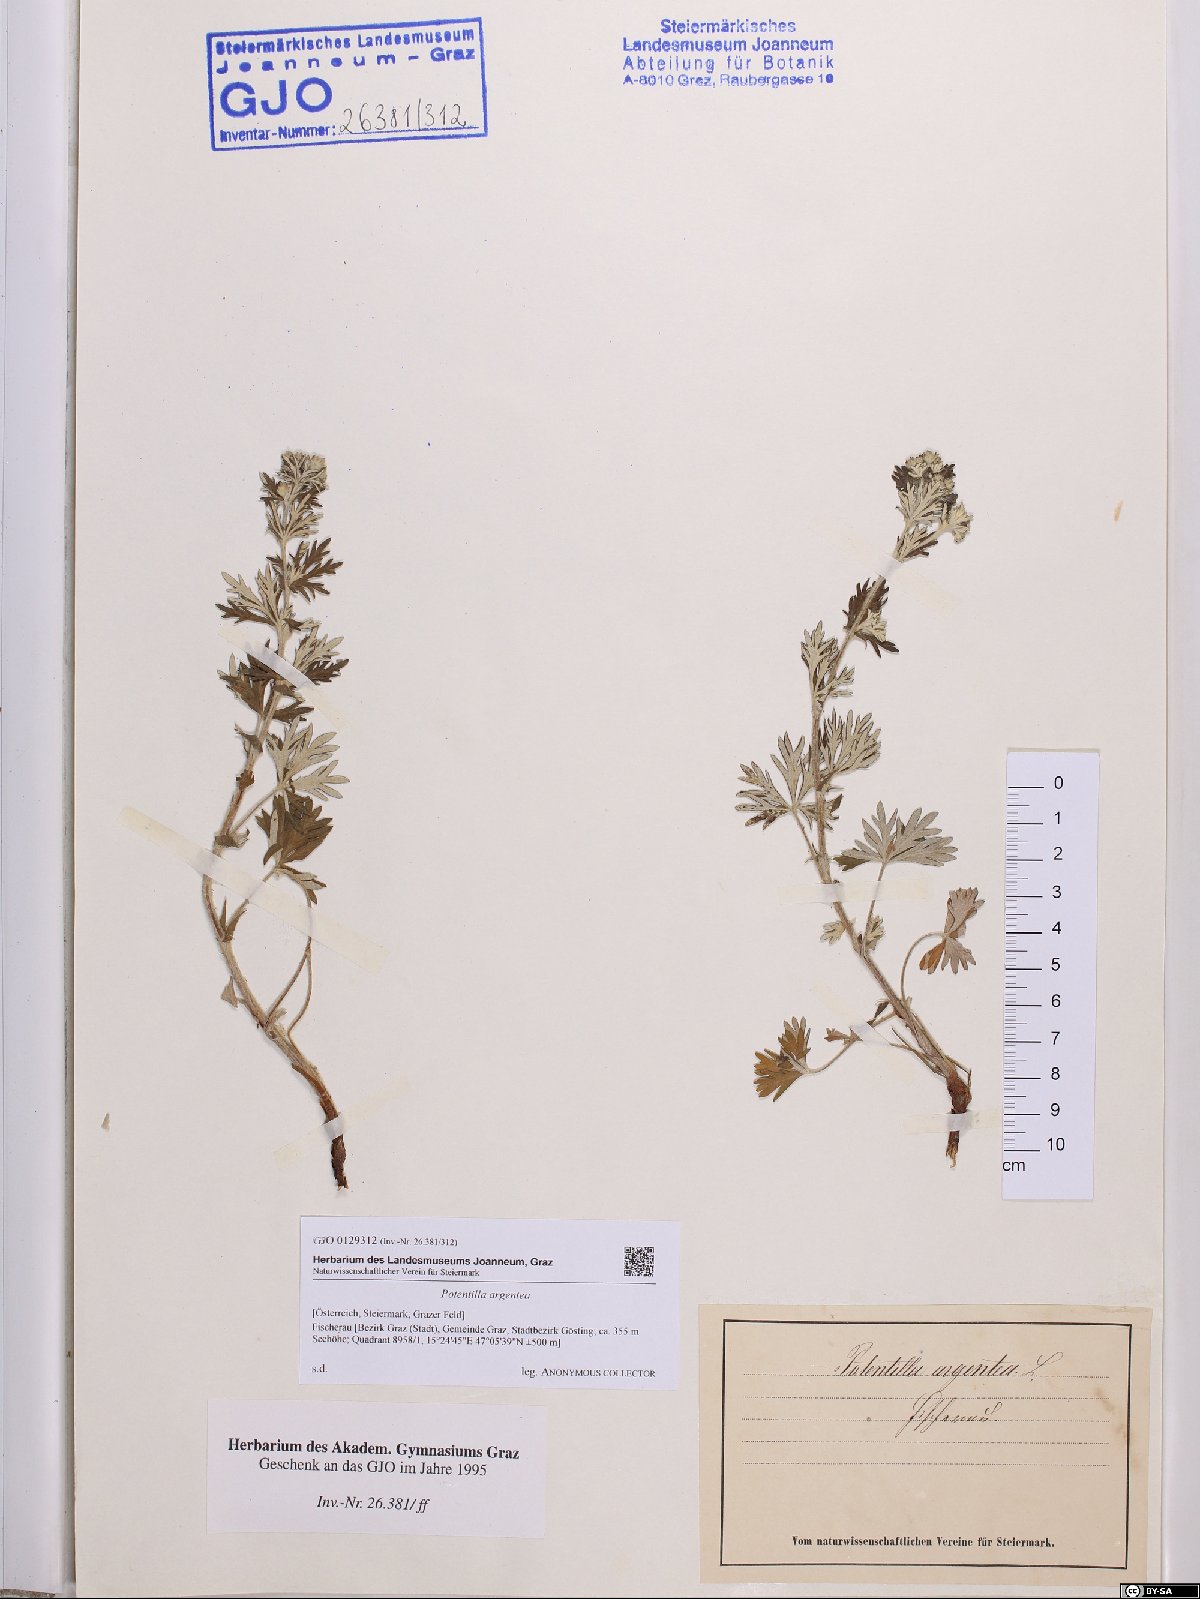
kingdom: Plantae
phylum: Tracheophyta
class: Magnoliopsida
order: Rosales
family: Rosaceae
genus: Potentilla
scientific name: Potentilla argentea
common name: Hoary cinquefoil
